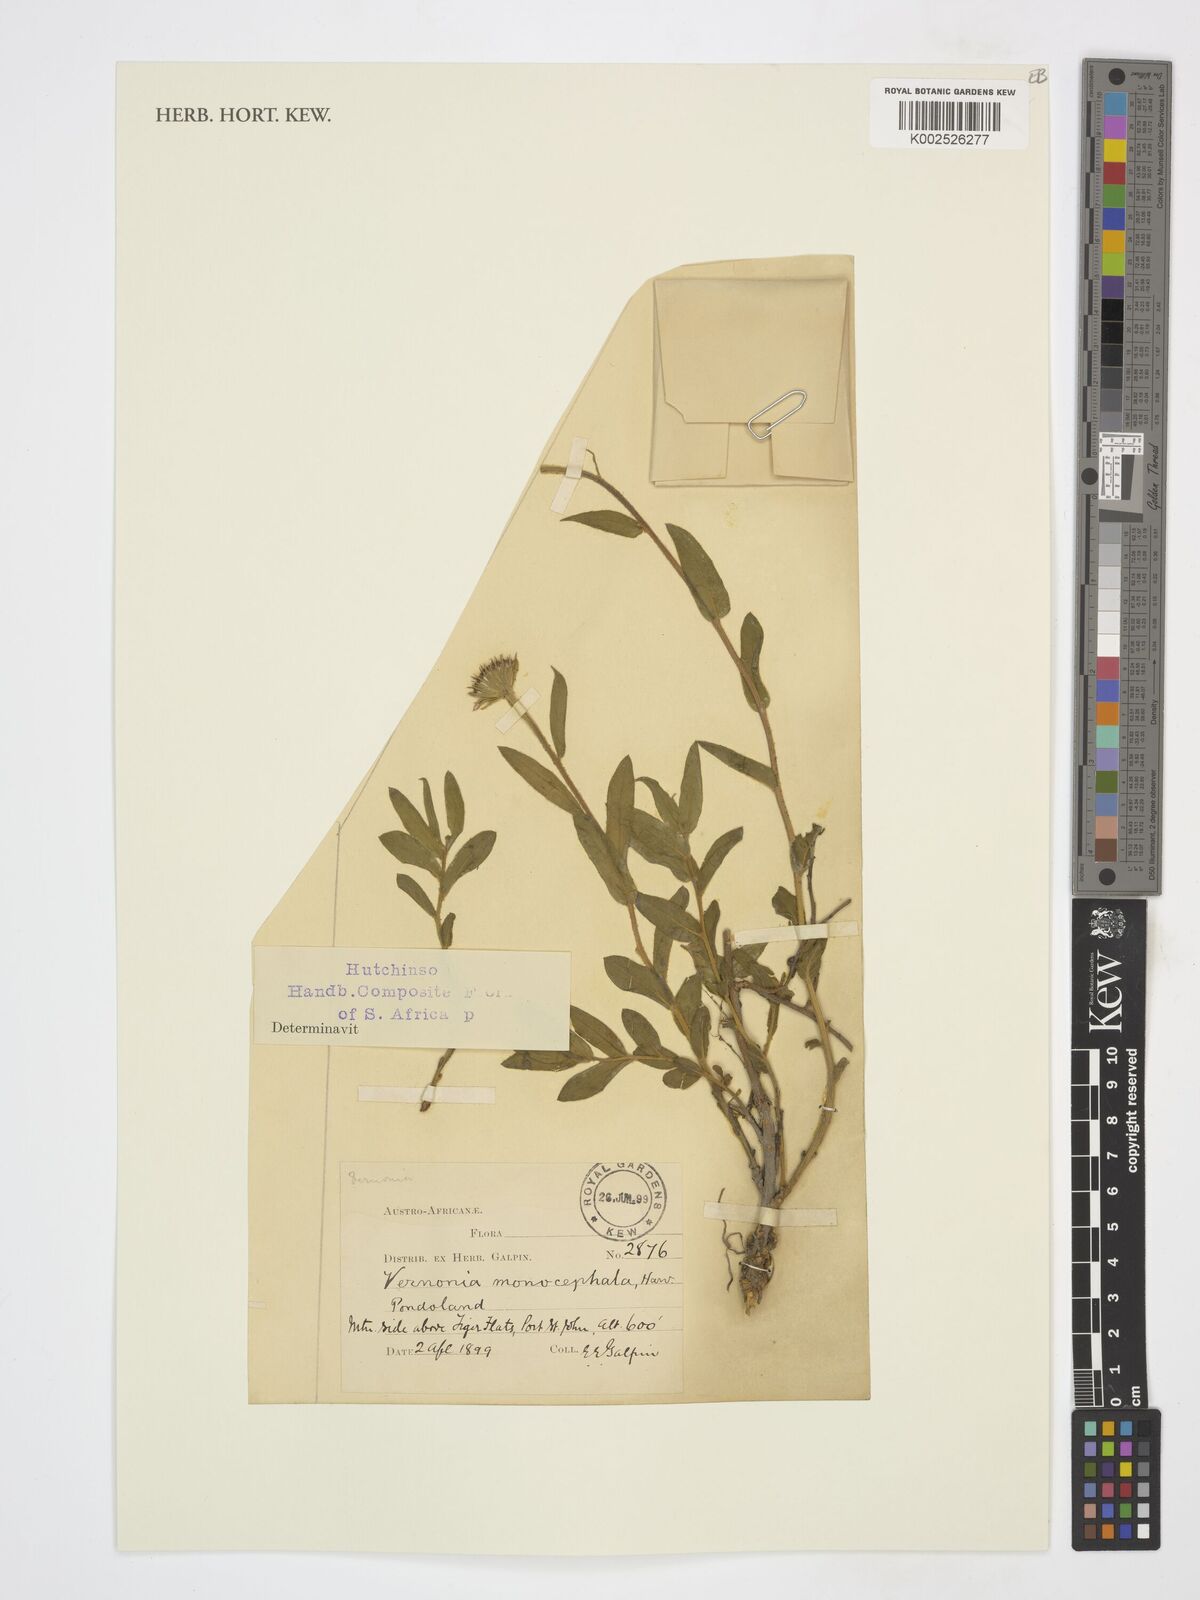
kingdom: Plantae
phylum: Tracheophyta
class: Magnoliopsida
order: Asterales
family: Asteraceae
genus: Pseudopegolettia
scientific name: Pseudopegolettia tenella
